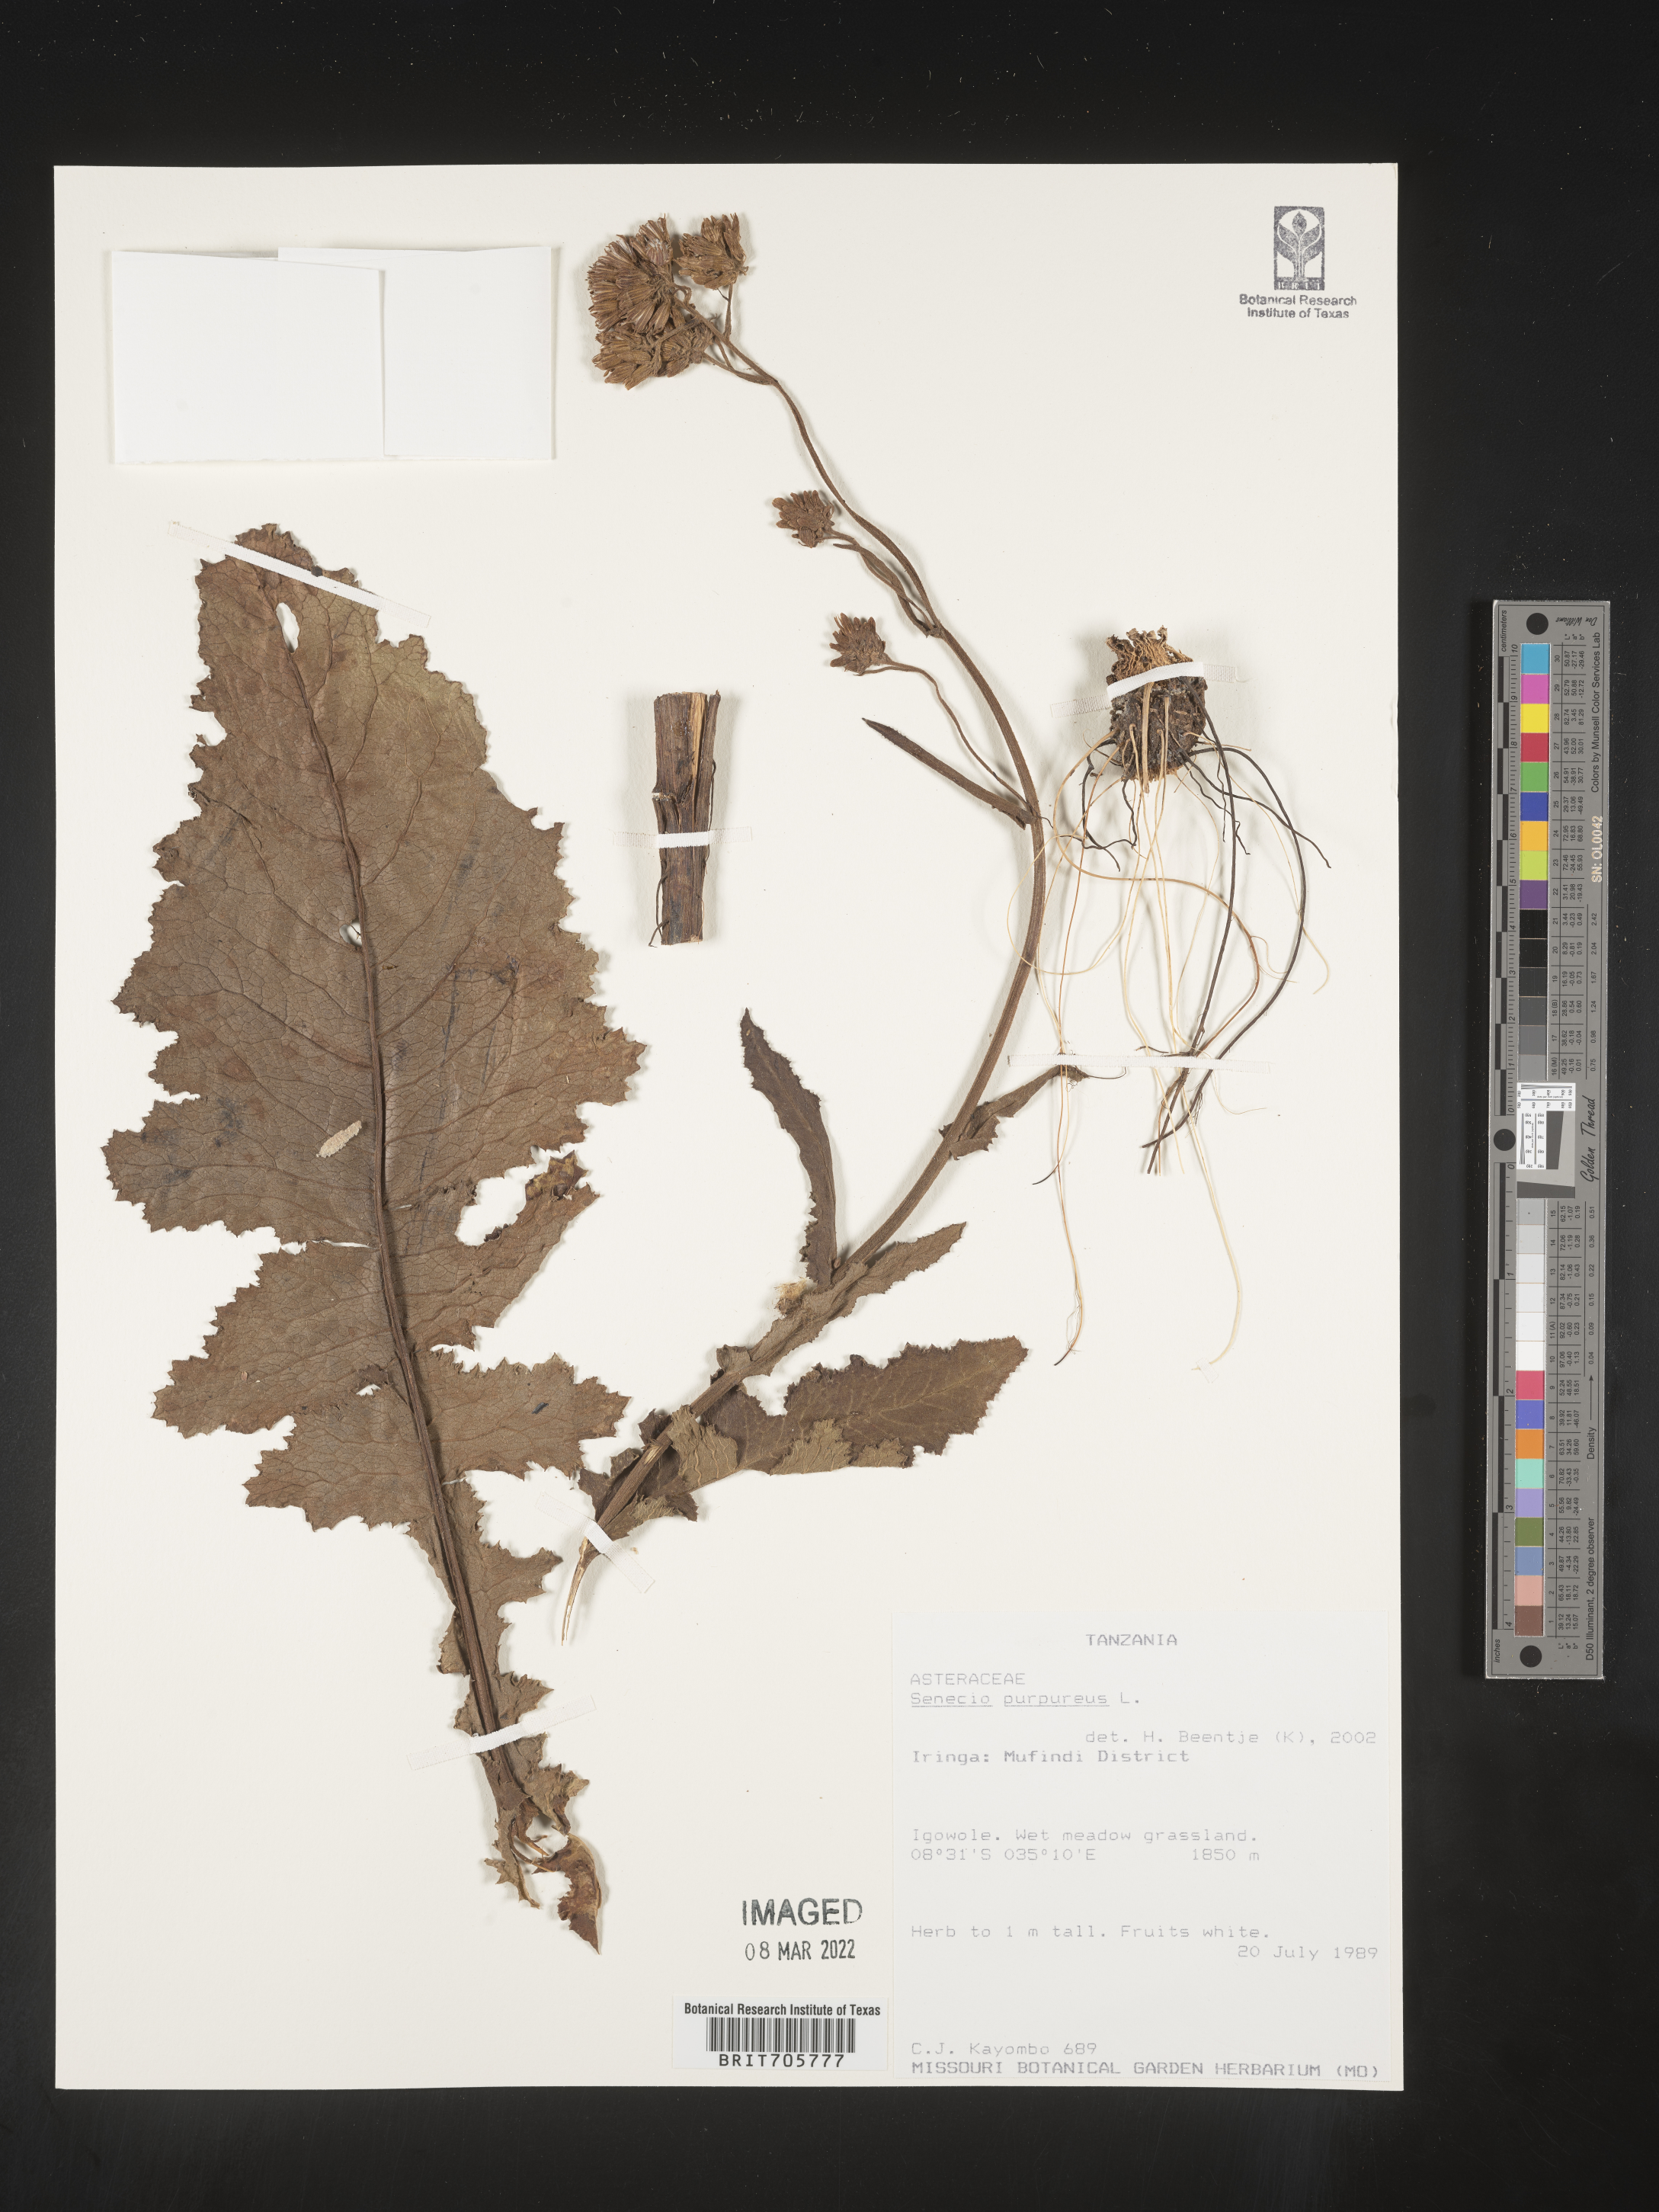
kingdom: Plantae
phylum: Tracheophyta
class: Magnoliopsida
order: Asterales
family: Asteraceae
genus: Senecio
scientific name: Senecio
